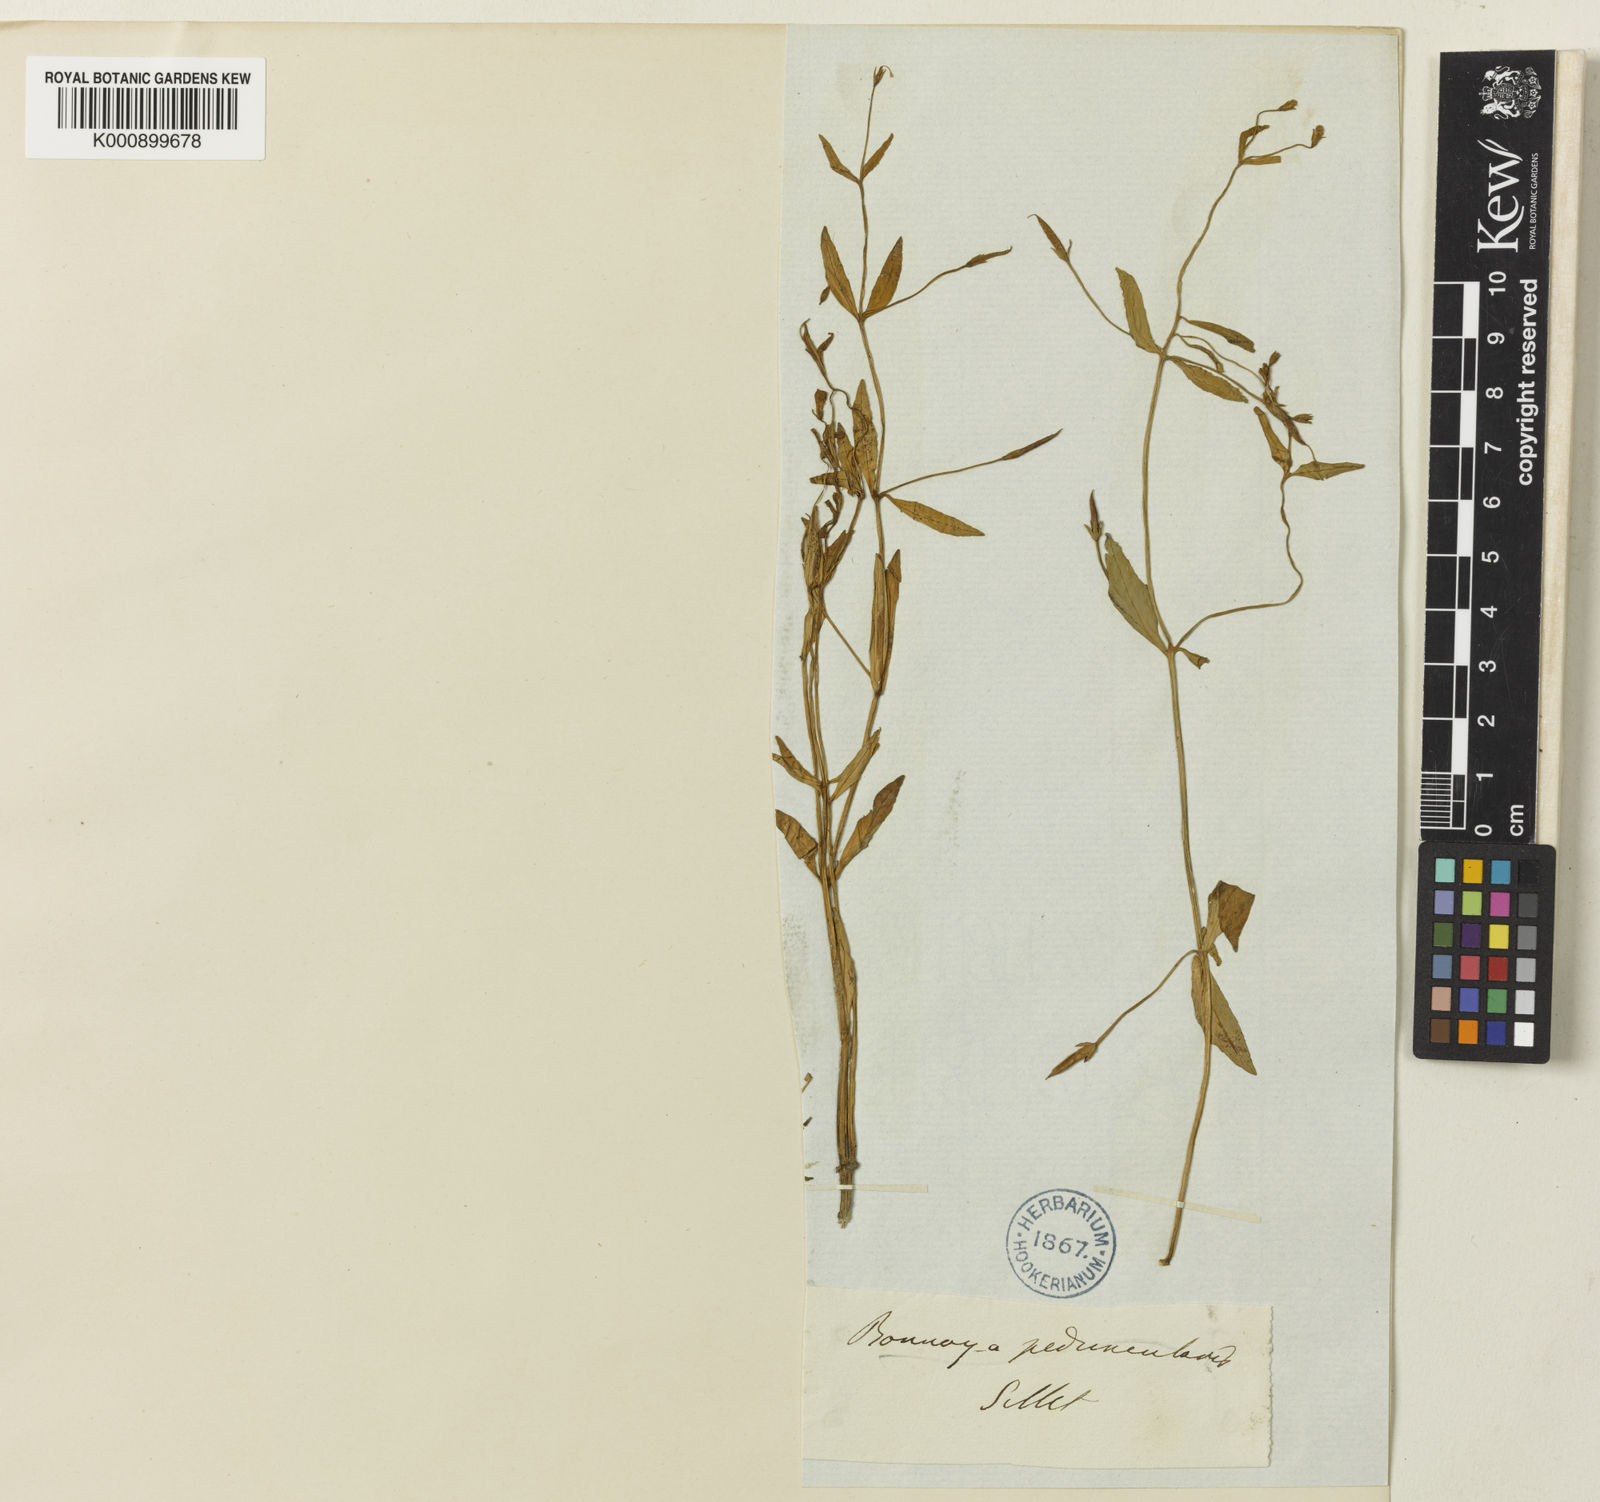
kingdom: Plantae
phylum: Tracheophyta
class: Magnoliopsida
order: Lamiales
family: Linderniaceae
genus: Torenia
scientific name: Torenia anagallis
